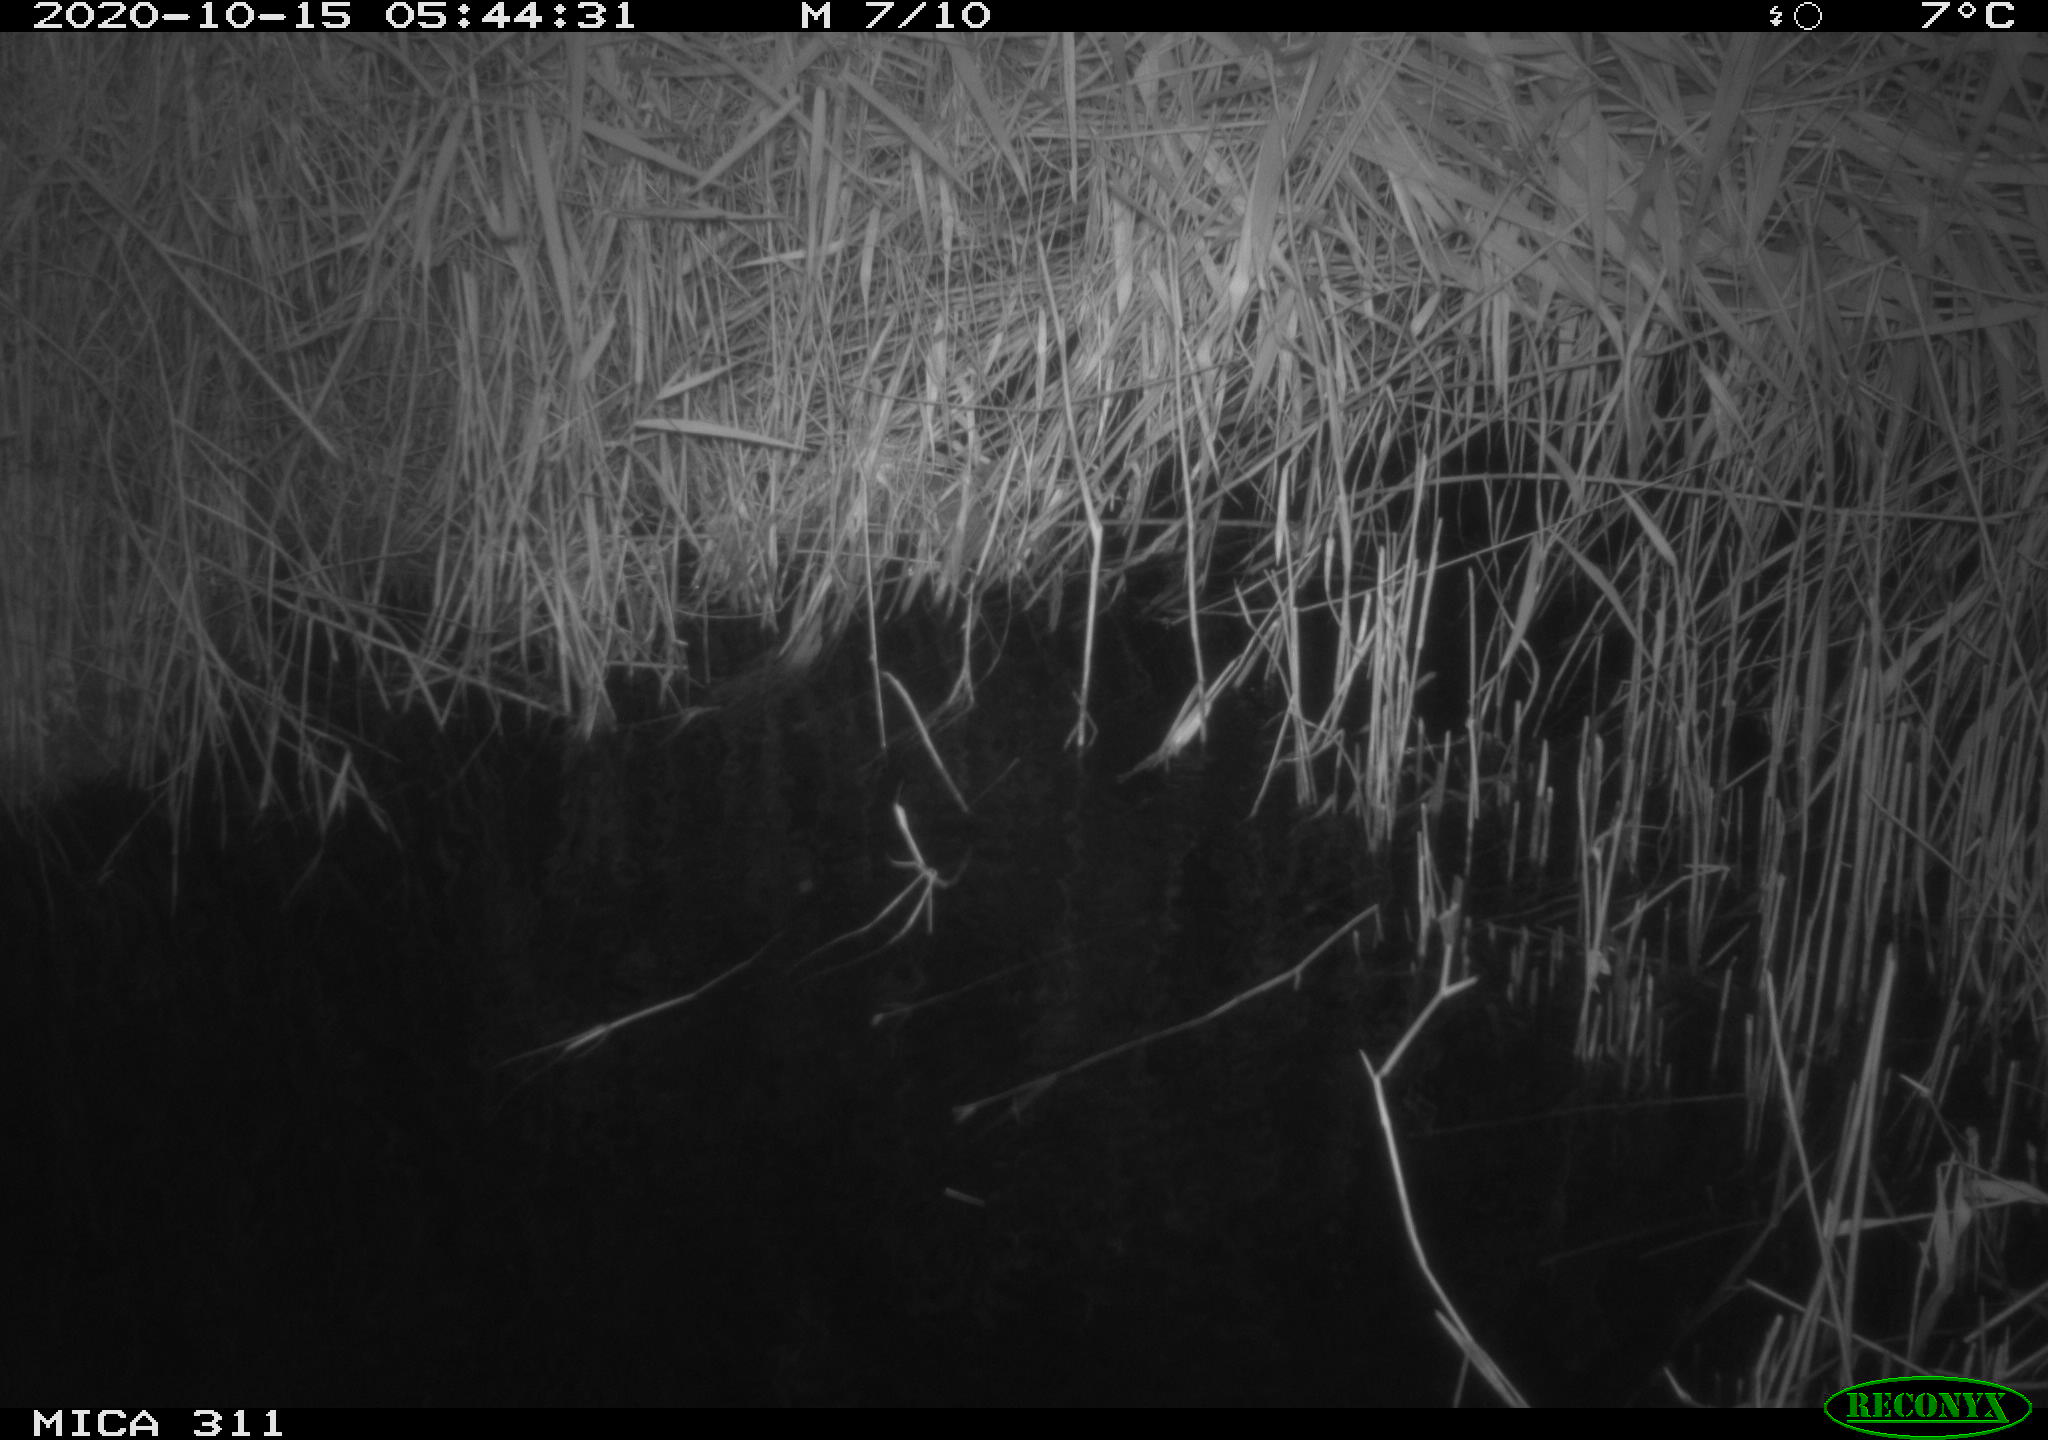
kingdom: Animalia
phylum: Chordata
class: Mammalia
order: Rodentia
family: Muridae
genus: Rattus
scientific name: Rattus norvegicus
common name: Brown rat
